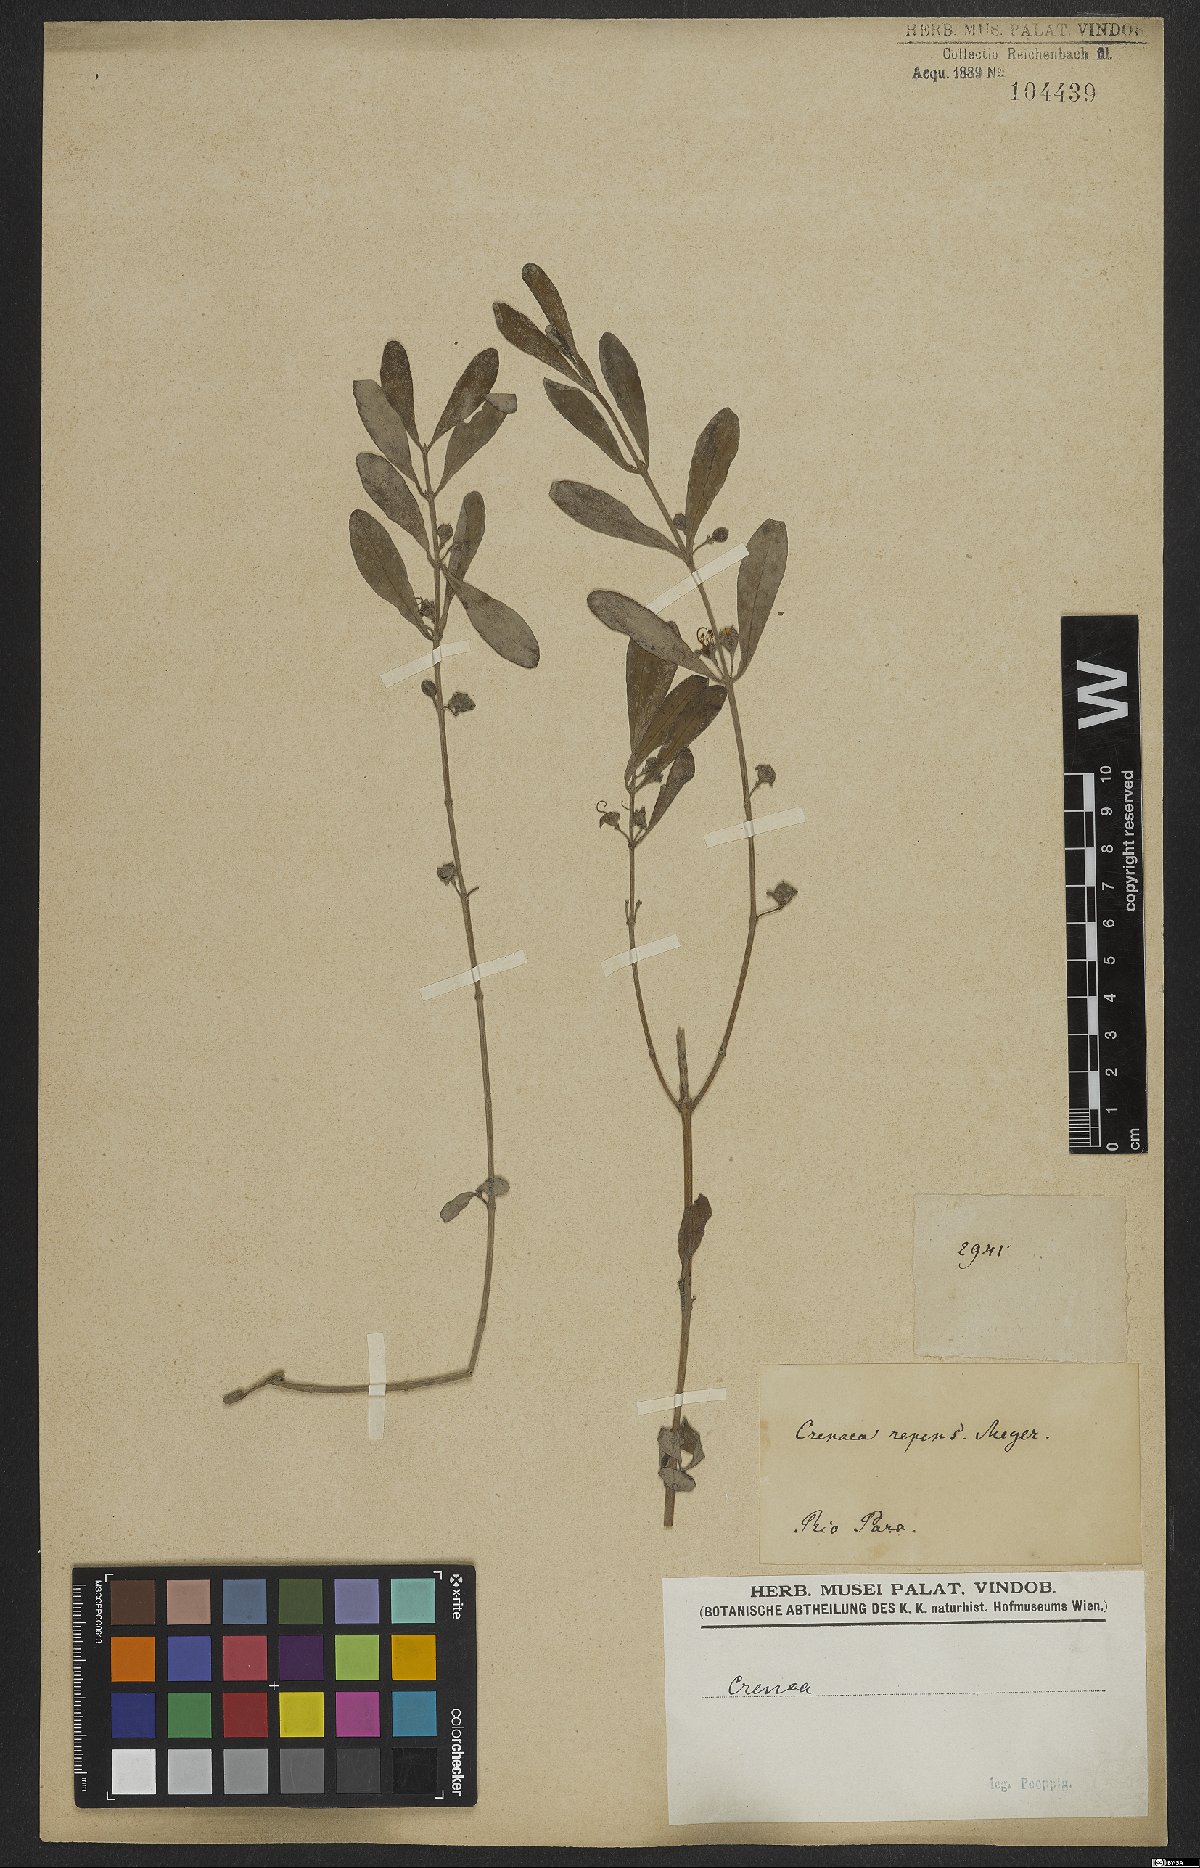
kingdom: Plantae
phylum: Tracheophyta
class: Magnoliopsida
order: Myrtales
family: Lythraceae
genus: Ammannia
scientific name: Ammannia maritima
